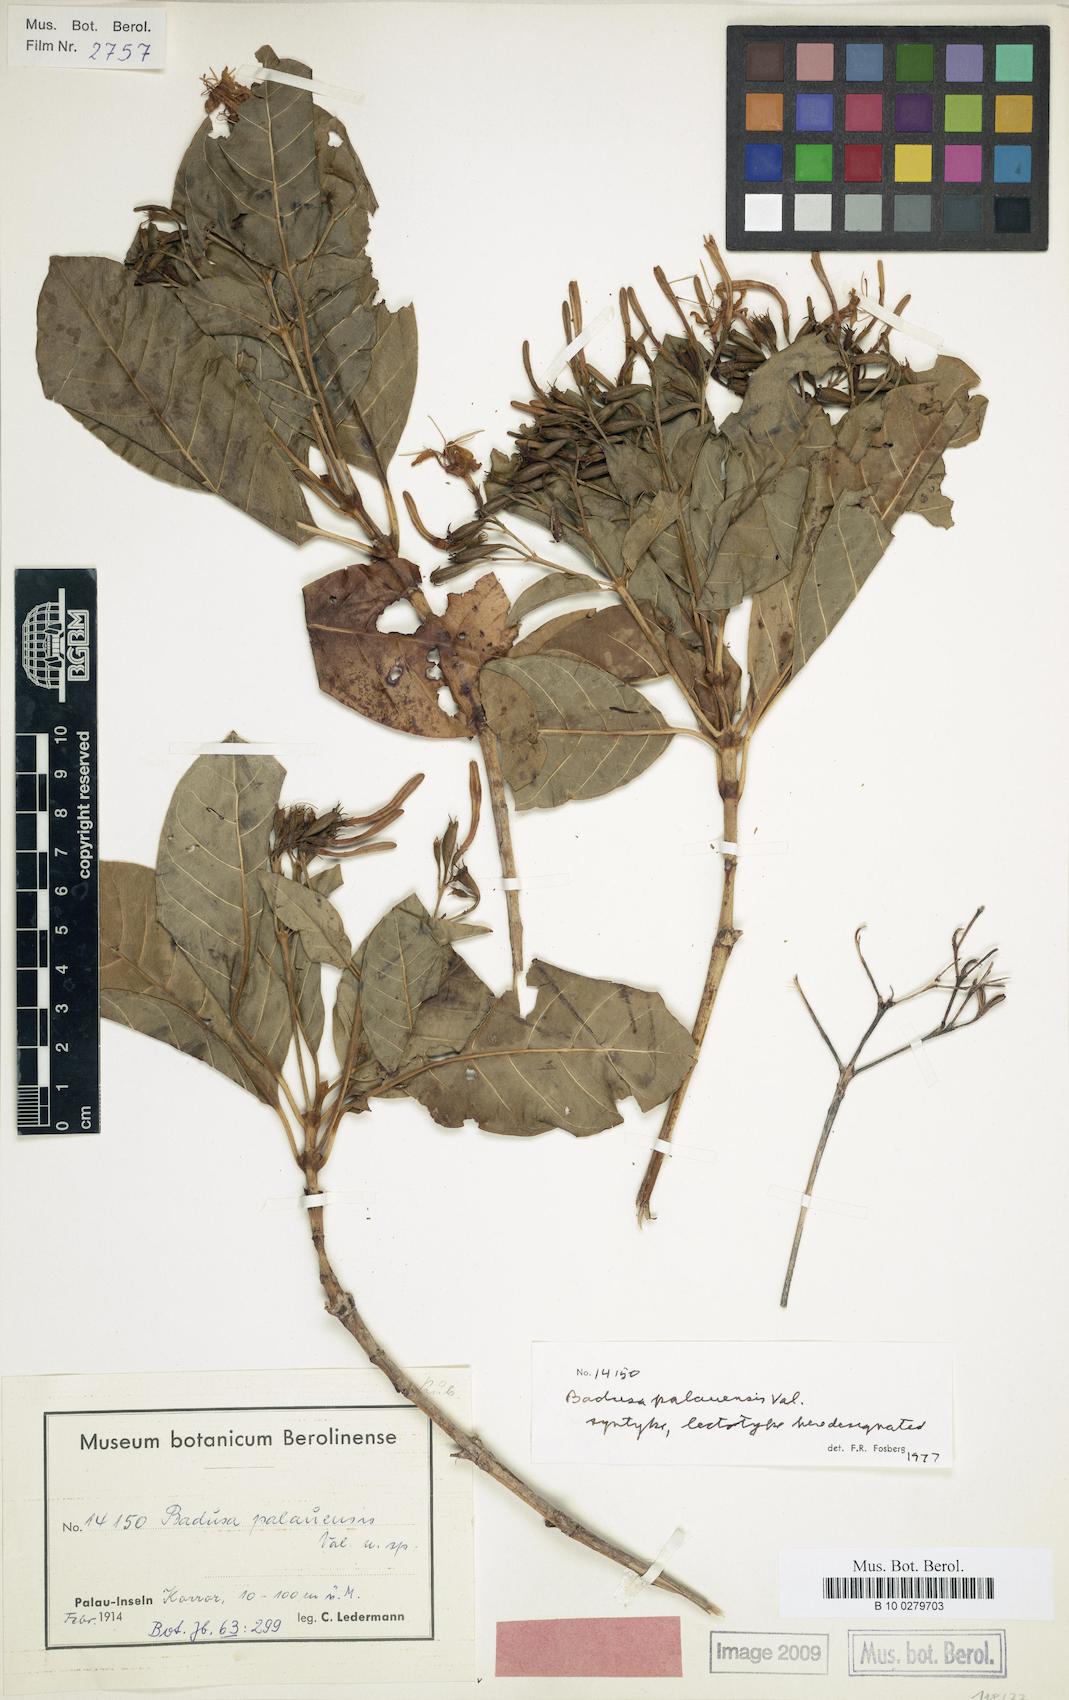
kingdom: Plantae
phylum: Tracheophyta
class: Magnoliopsida
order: Gentianales
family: Rubiaceae
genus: Badusa
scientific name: Badusa palauensis
